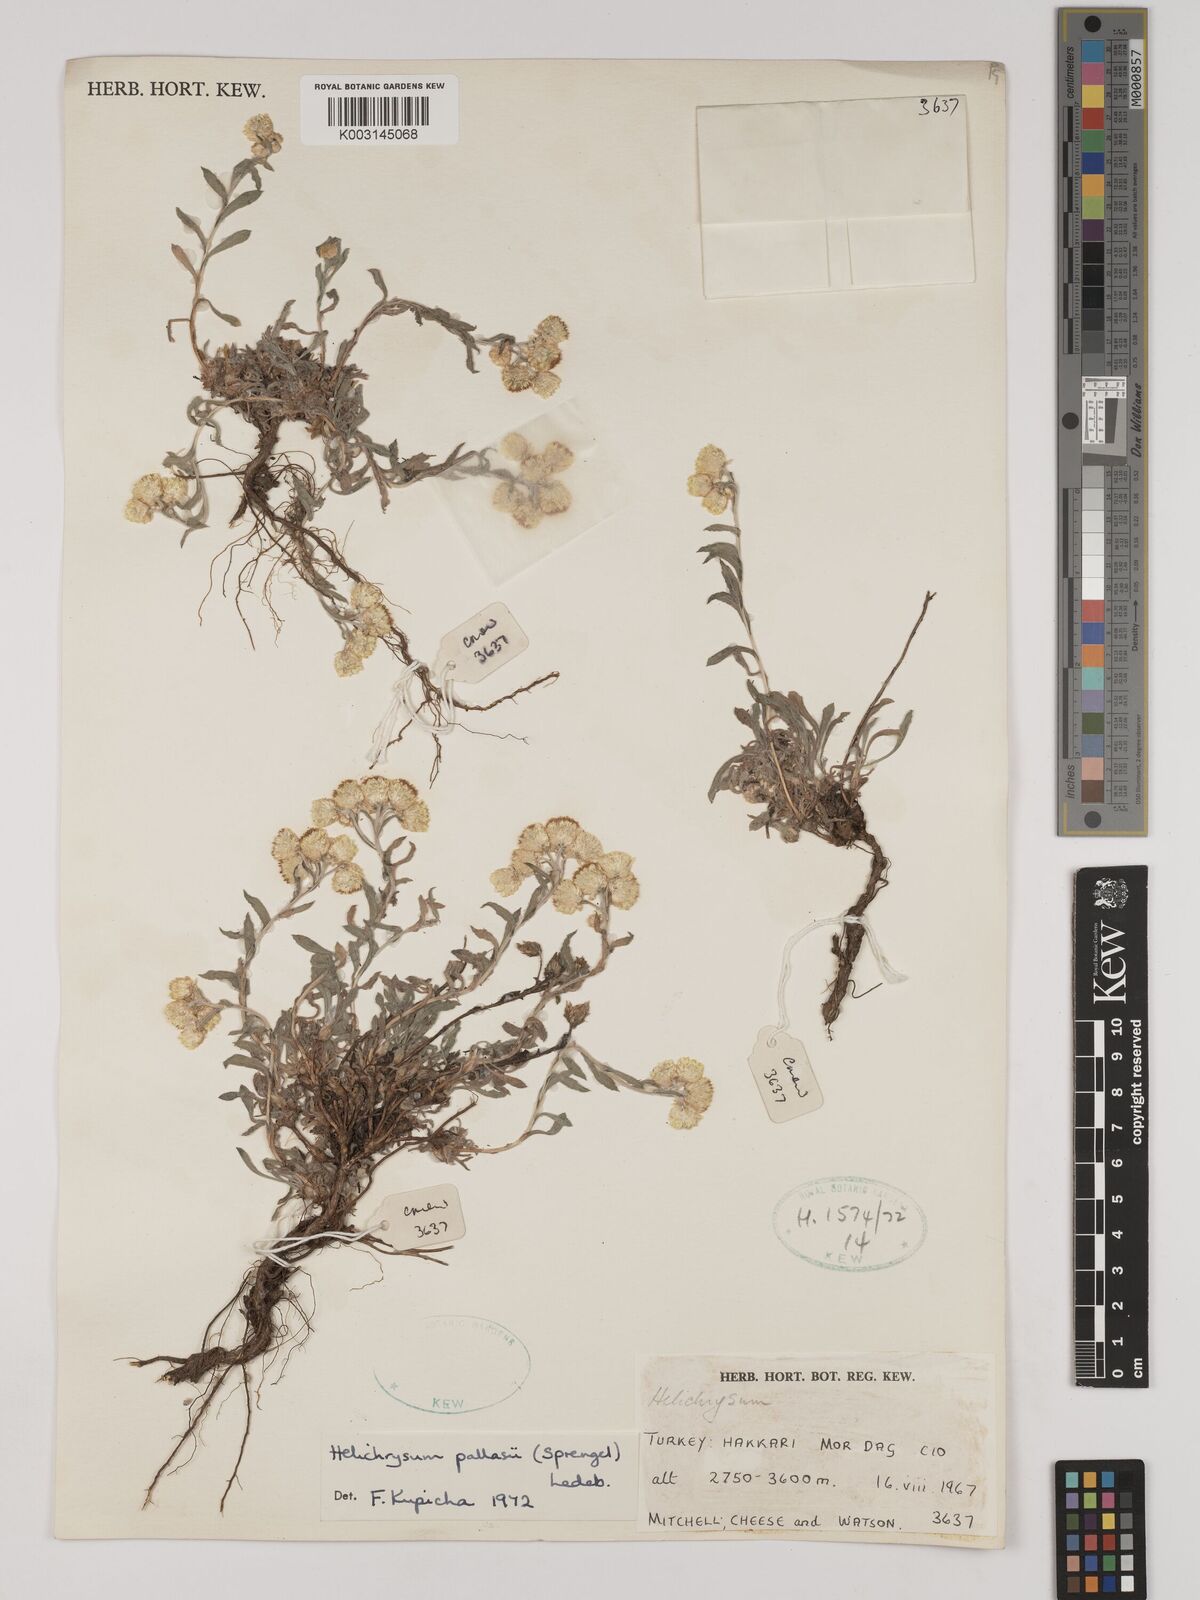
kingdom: Plantae
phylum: Tracheophyta
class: Magnoliopsida
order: Asterales
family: Asteraceae
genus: Helichrysum
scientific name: Helichrysum pallasii
